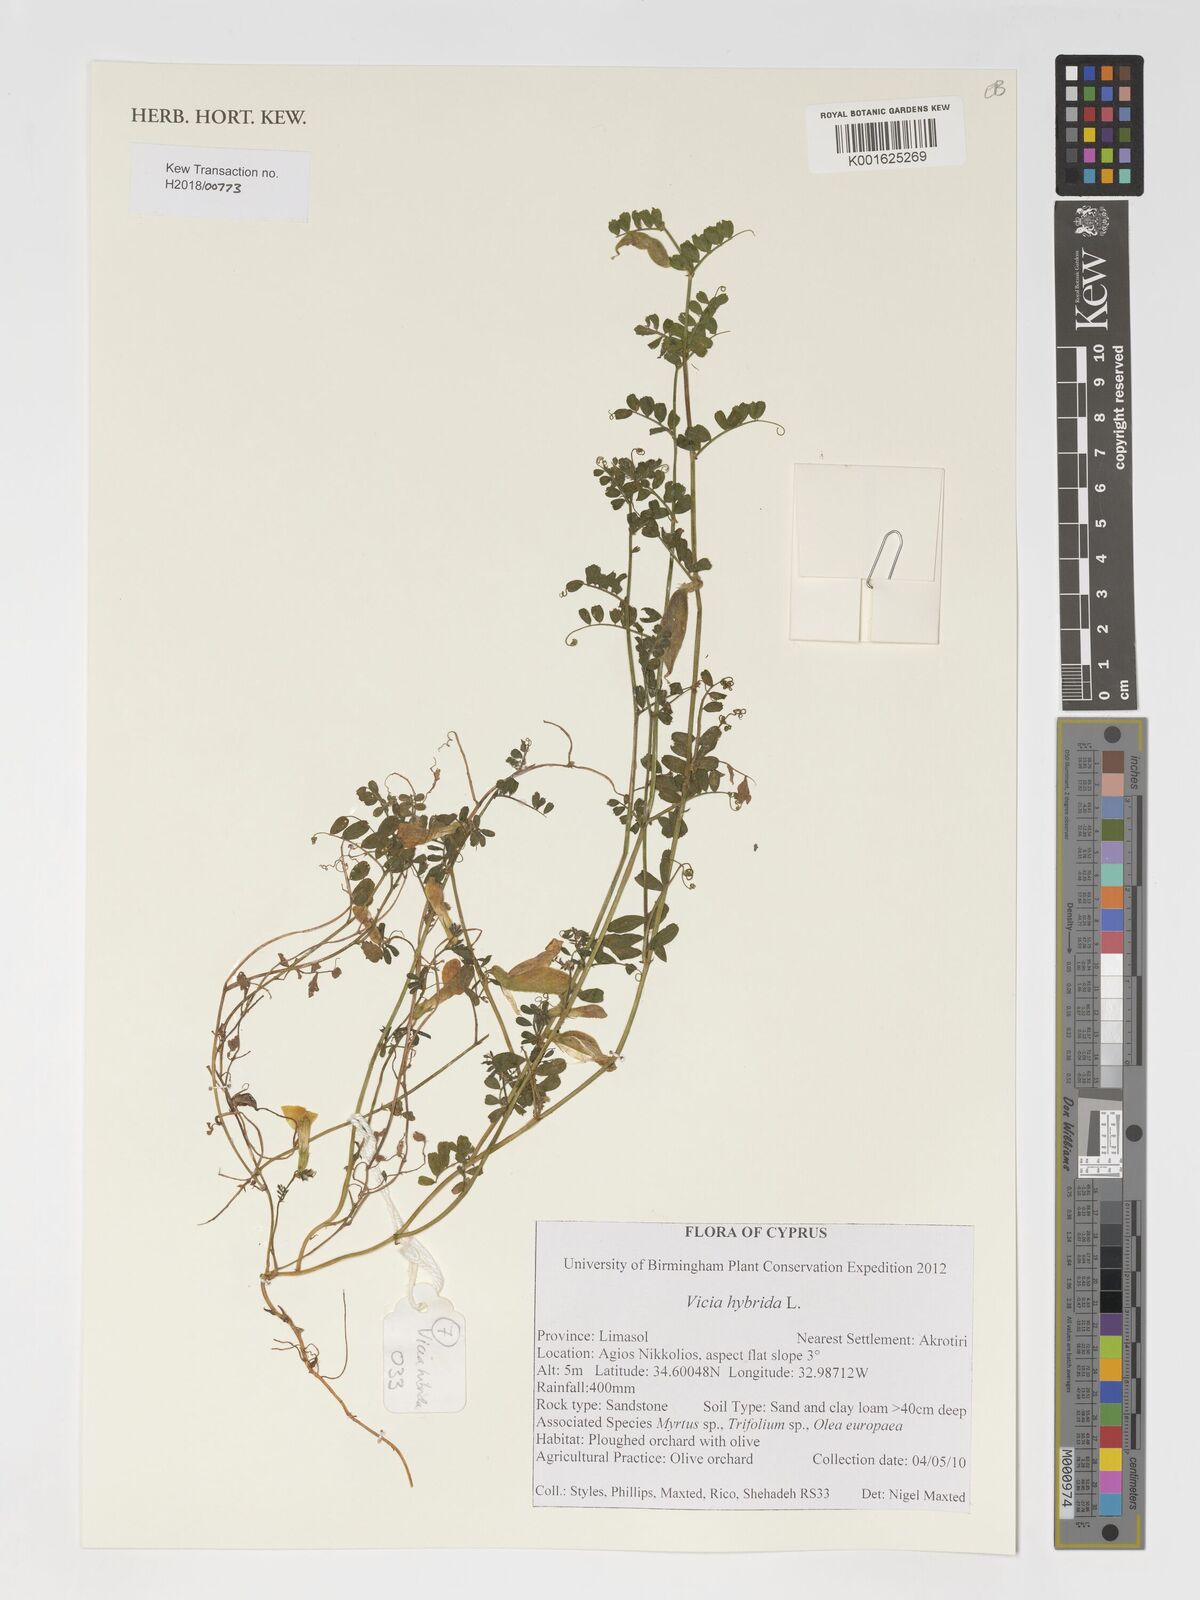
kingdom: Plantae
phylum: Tracheophyta
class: Magnoliopsida
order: Fabales
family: Fabaceae
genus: Vicia
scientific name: Vicia hybrida
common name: Hairy yellow vetch
